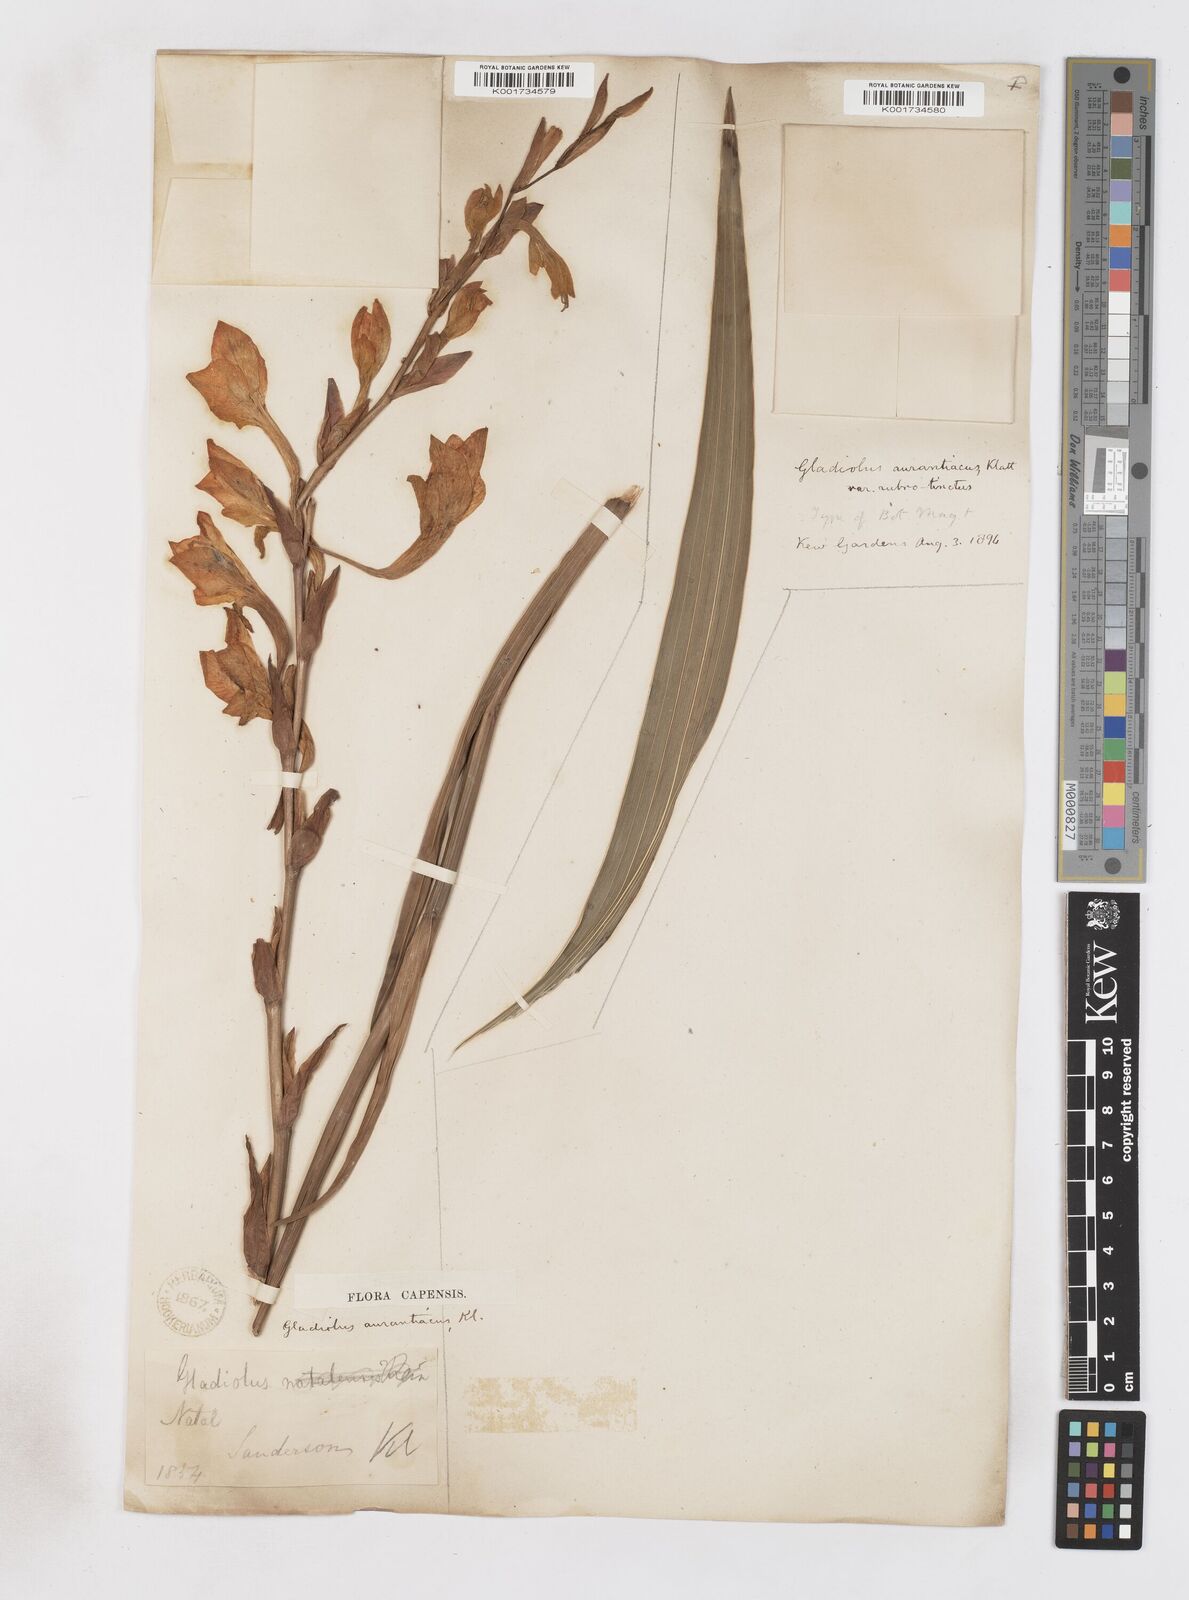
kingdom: Plantae
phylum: Tracheophyta
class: Liliopsida
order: Asparagales
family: Iridaceae
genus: Gladiolus
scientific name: Gladiolus aurantiacus
